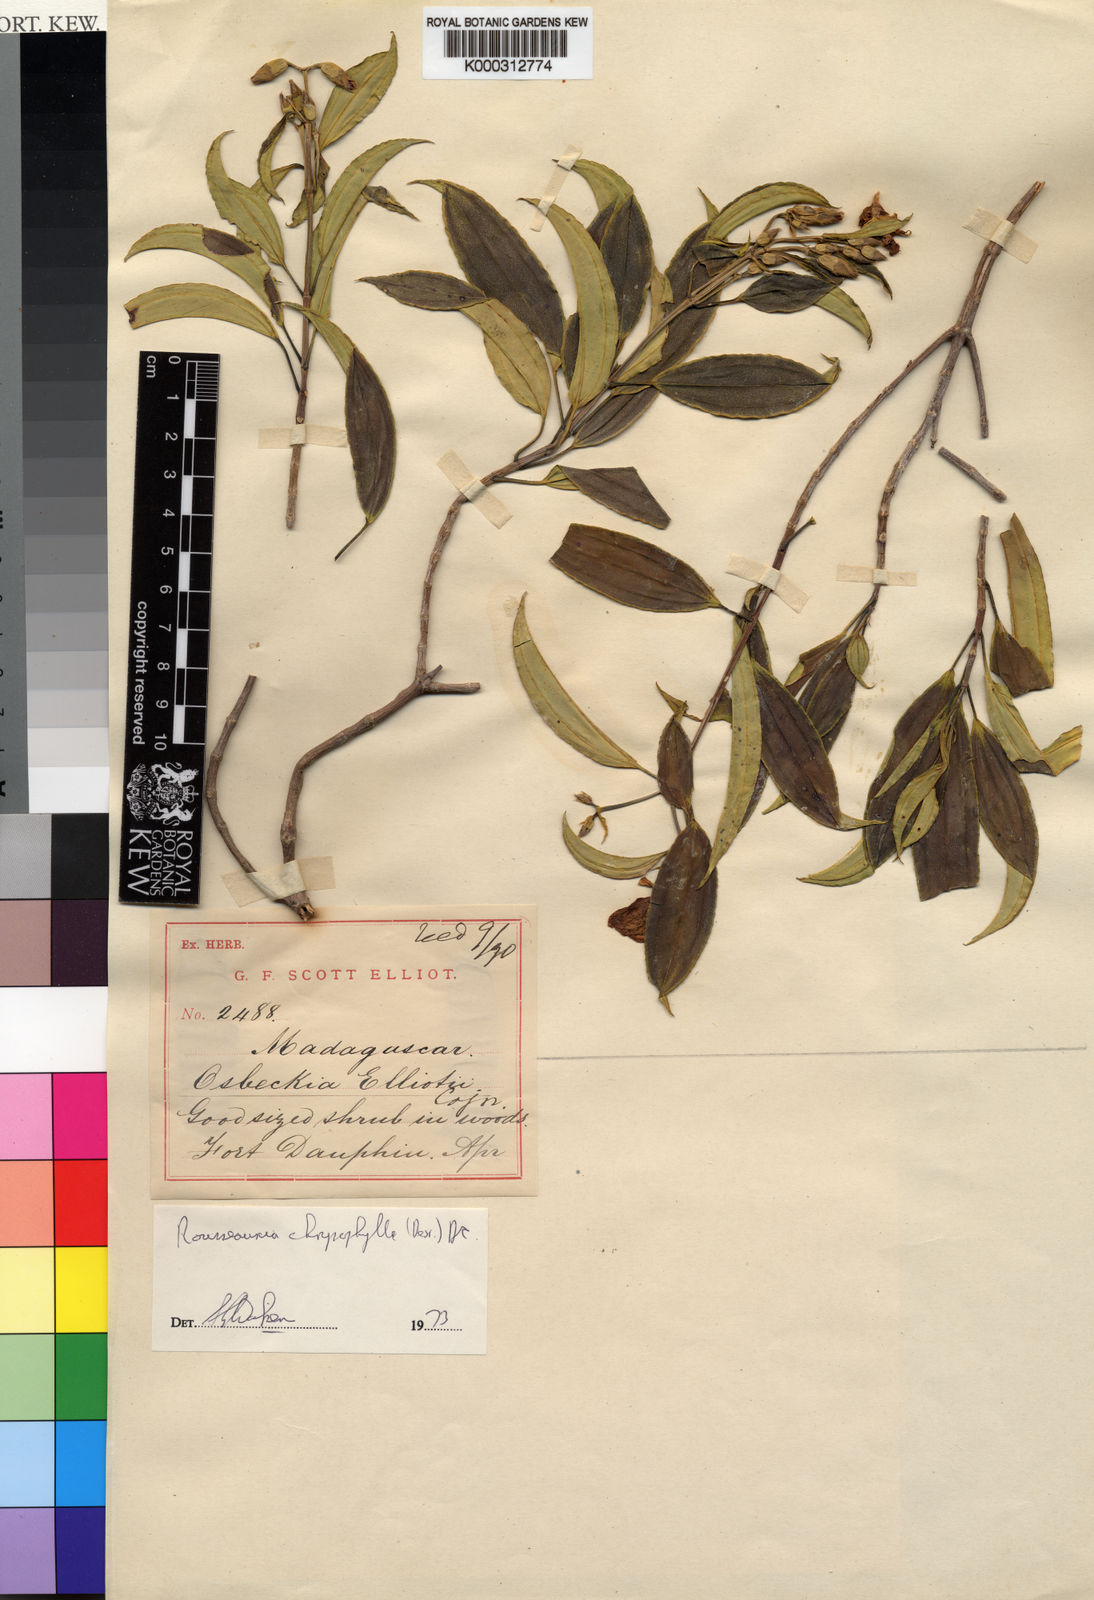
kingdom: Plantae
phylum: Tracheophyta
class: Magnoliopsida
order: Myrtales
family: Melastomataceae
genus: Rousseauxia
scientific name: Rousseauxia chrysophylla
